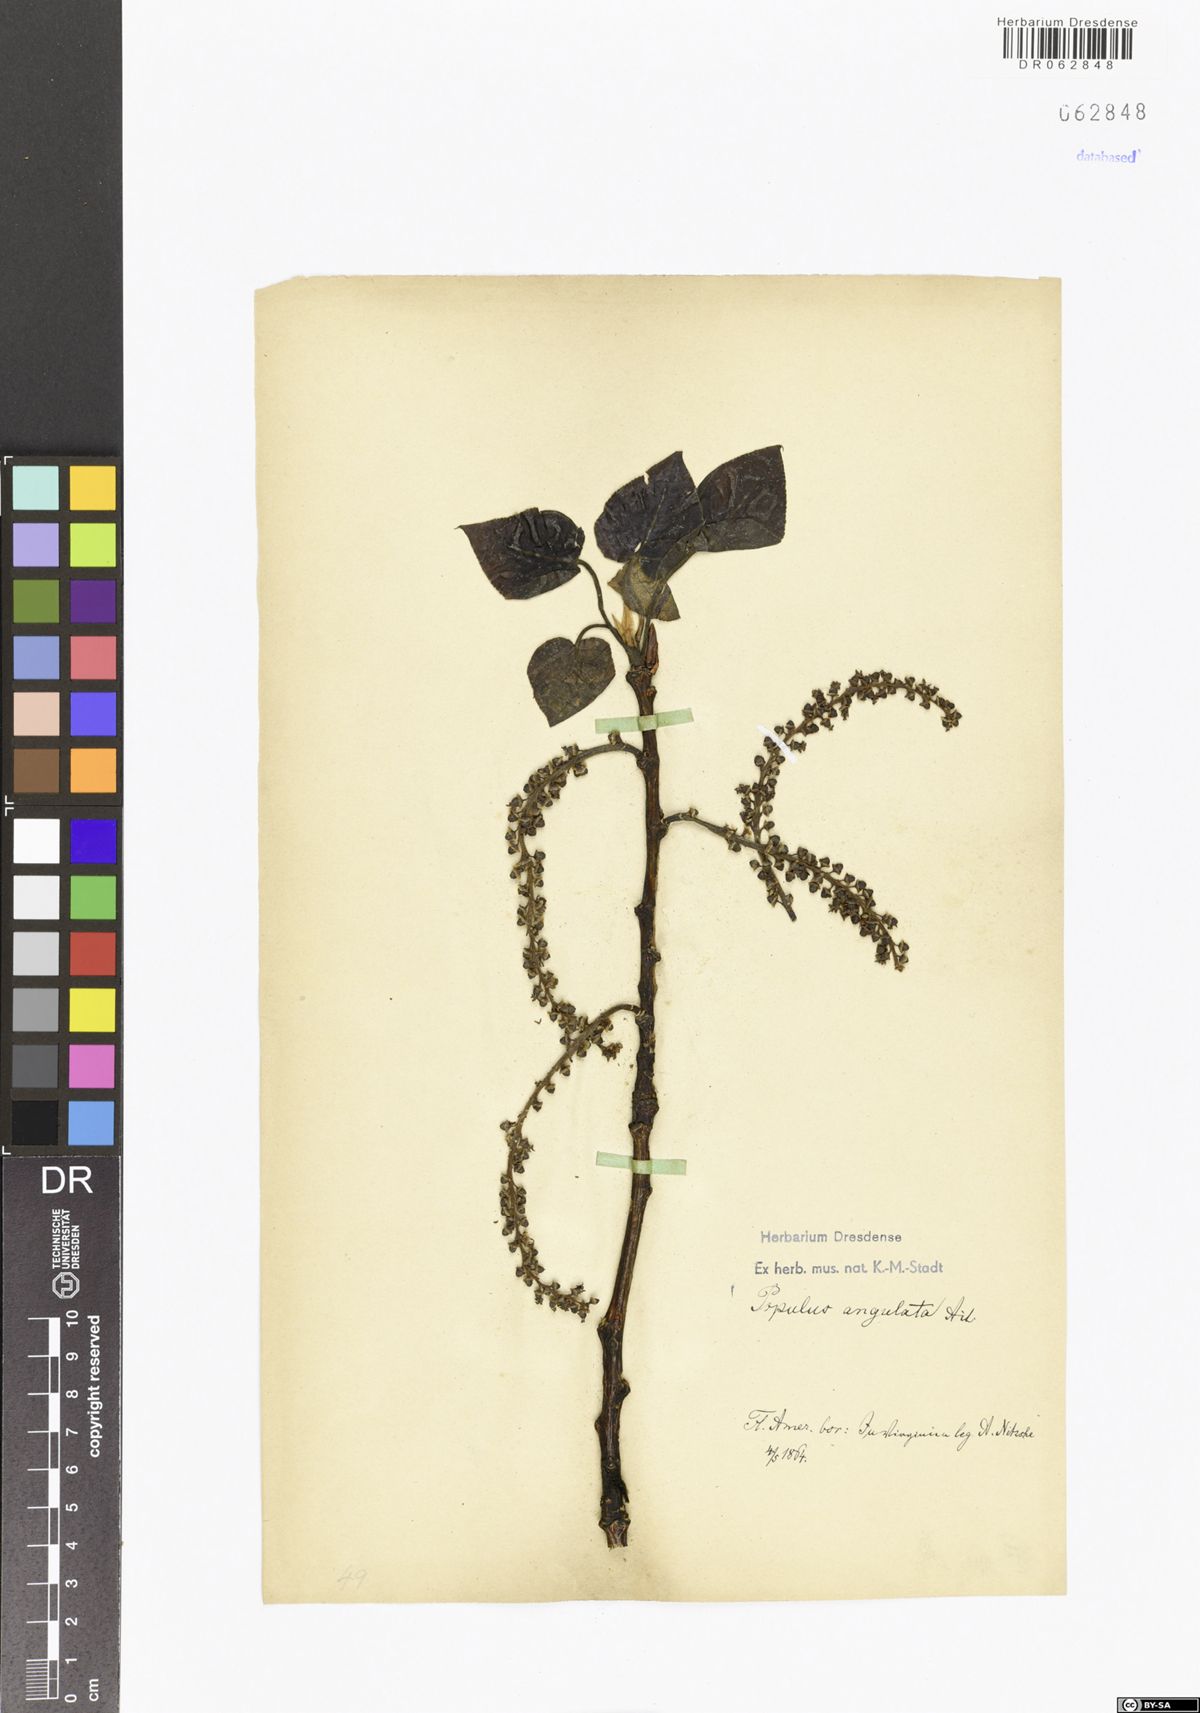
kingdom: Plantae
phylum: Tracheophyta
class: Magnoliopsida
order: Malpighiales
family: Salicaceae
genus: Populus
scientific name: Populus deltoides
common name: Eastern cottonwood
